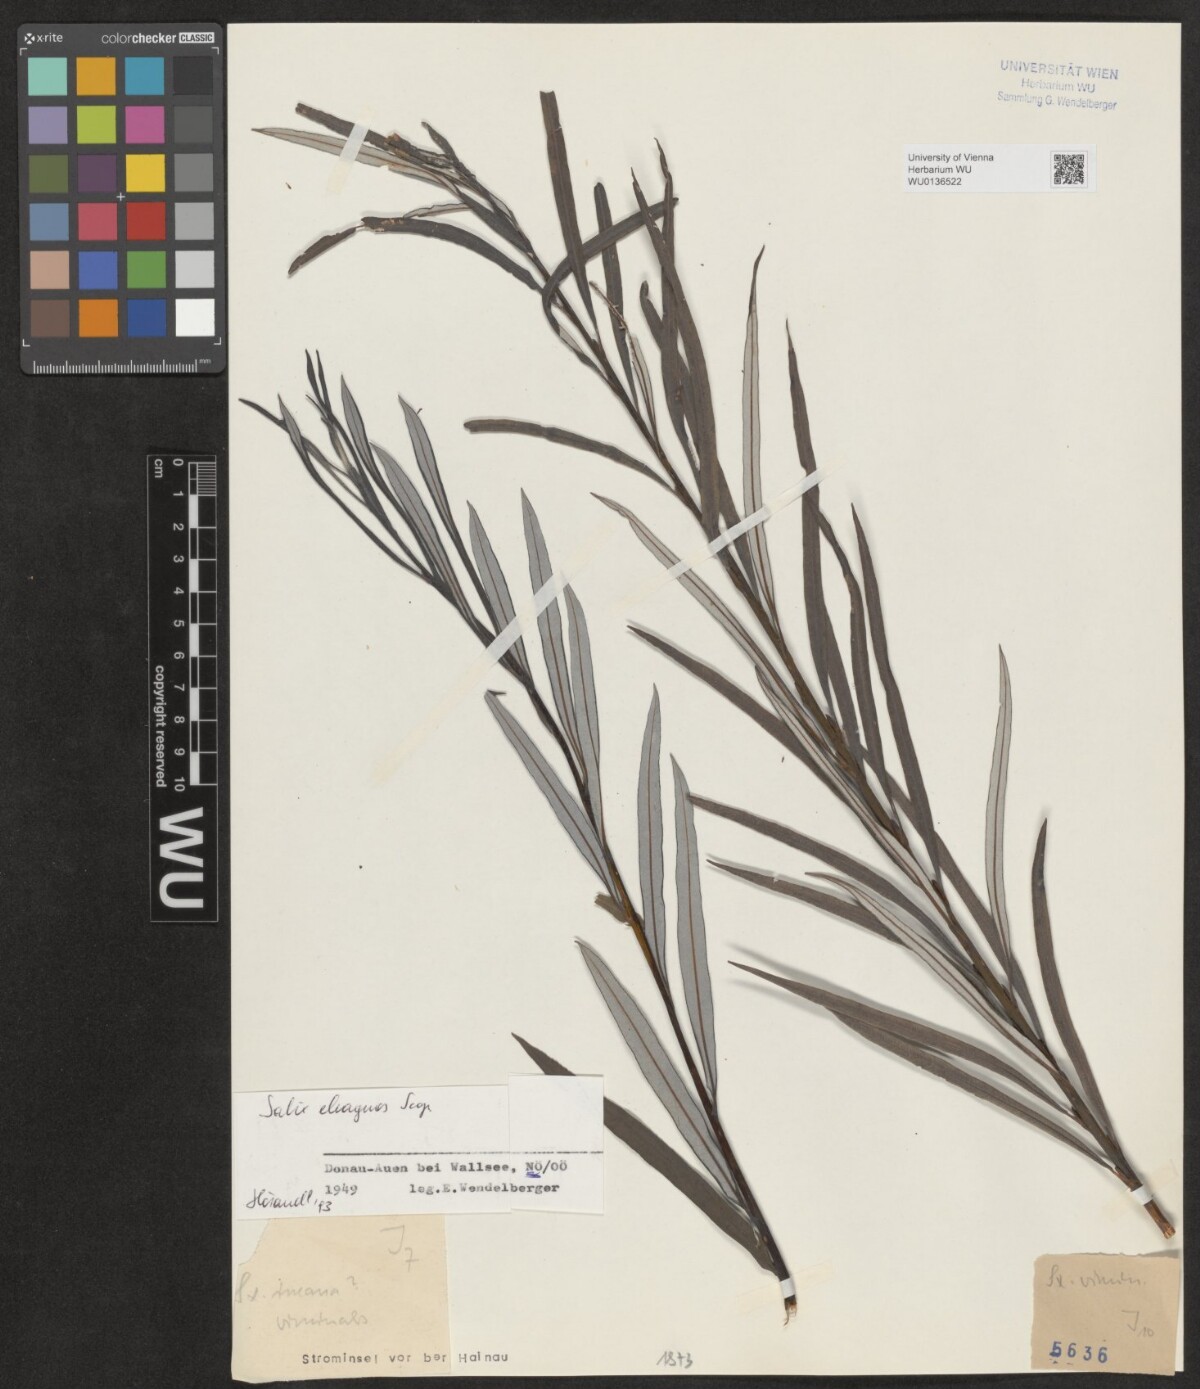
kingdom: Plantae
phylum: Tracheophyta
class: Magnoliopsida
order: Malpighiales
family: Salicaceae
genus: Salix
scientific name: Salix eleagnos
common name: Elaeagnus willow
